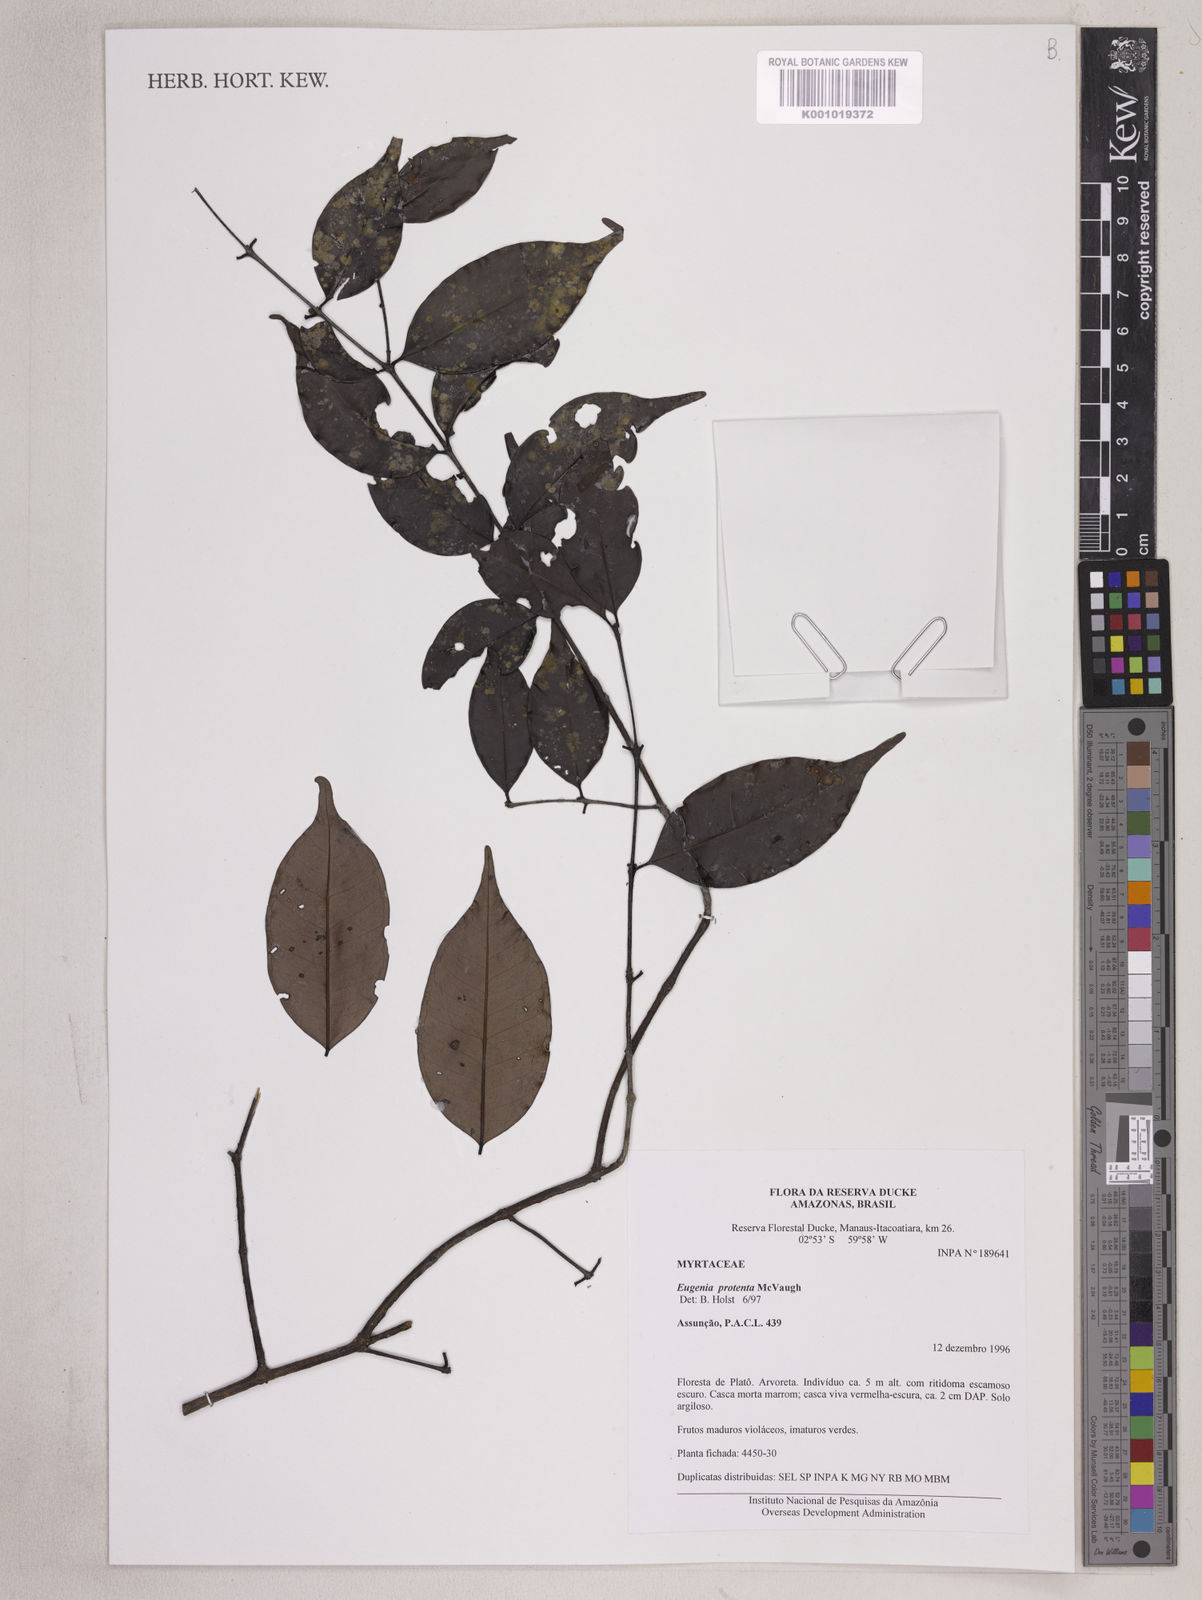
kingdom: Plantae
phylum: Tracheophyta
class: Magnoliopsida
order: Myrtales
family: Myrtaceae
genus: Eugenia
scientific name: Eugenia protenta
